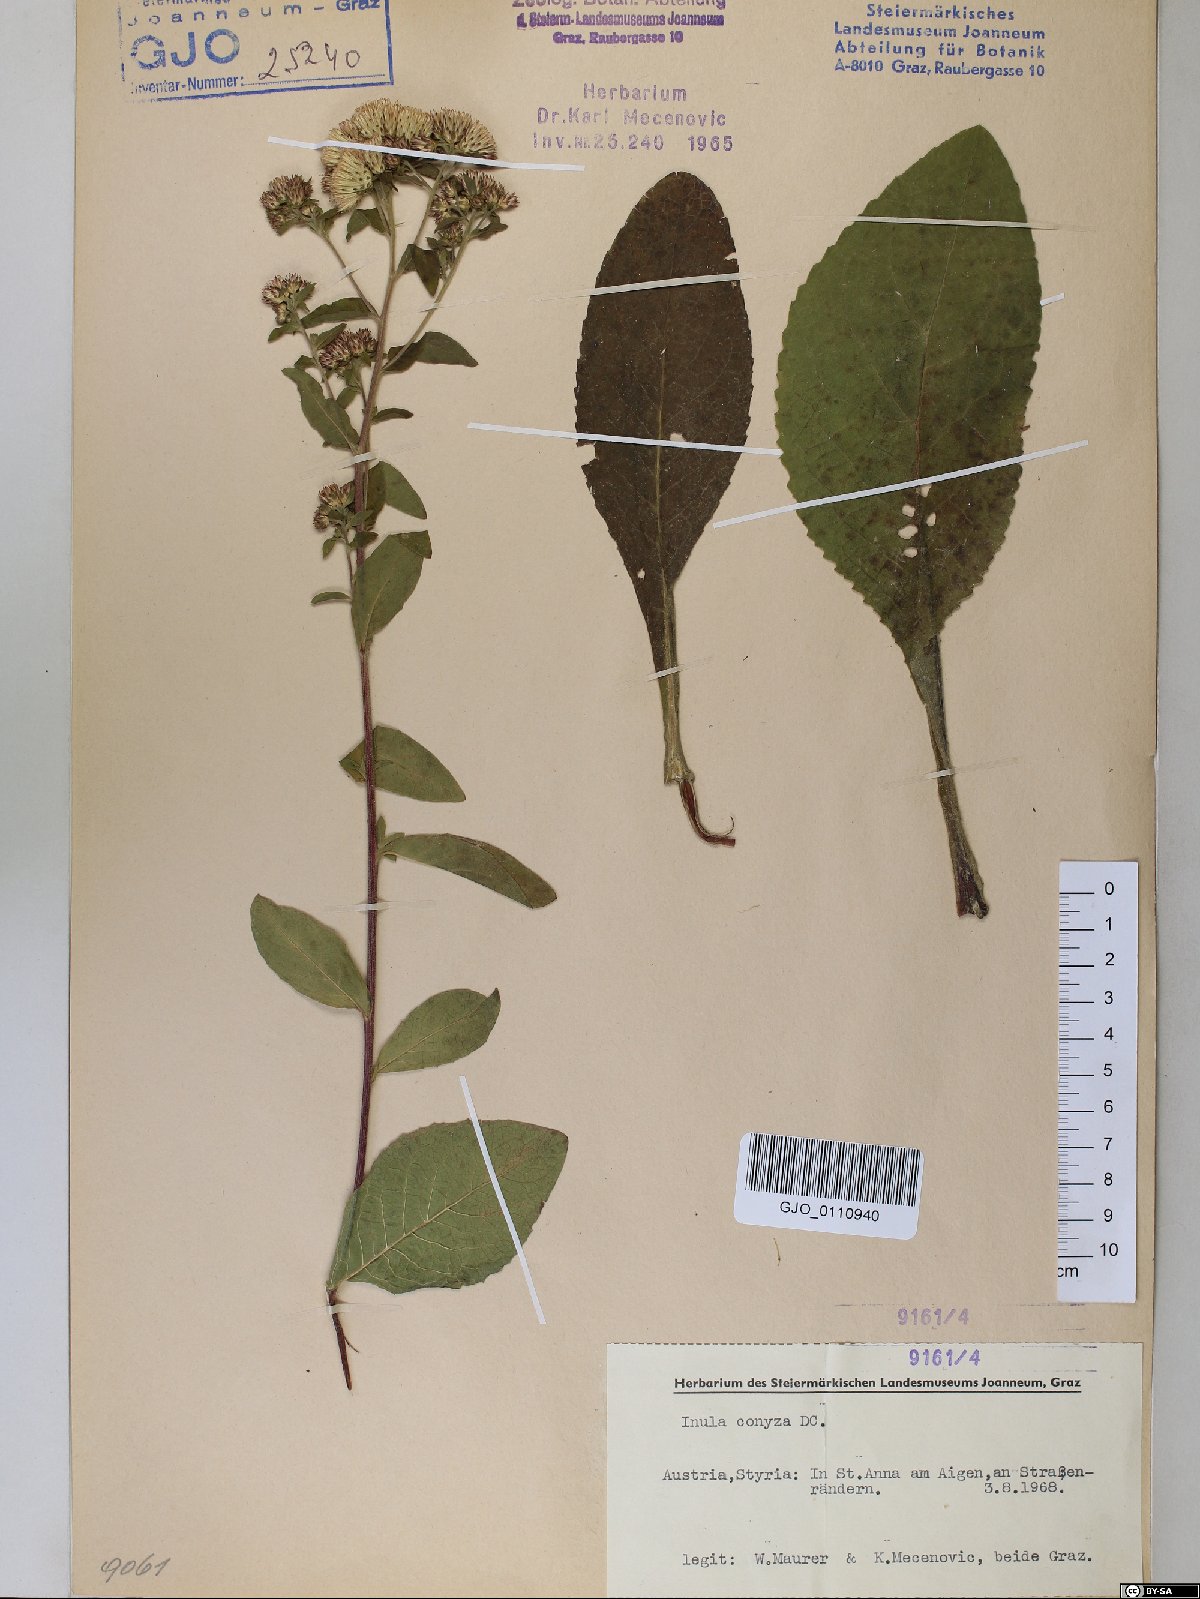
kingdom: Plantae
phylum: Tracheophyta
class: Magnoliopsida
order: Asterales
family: Asteraceae
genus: Pentanema
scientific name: Pentanema squarrosum
